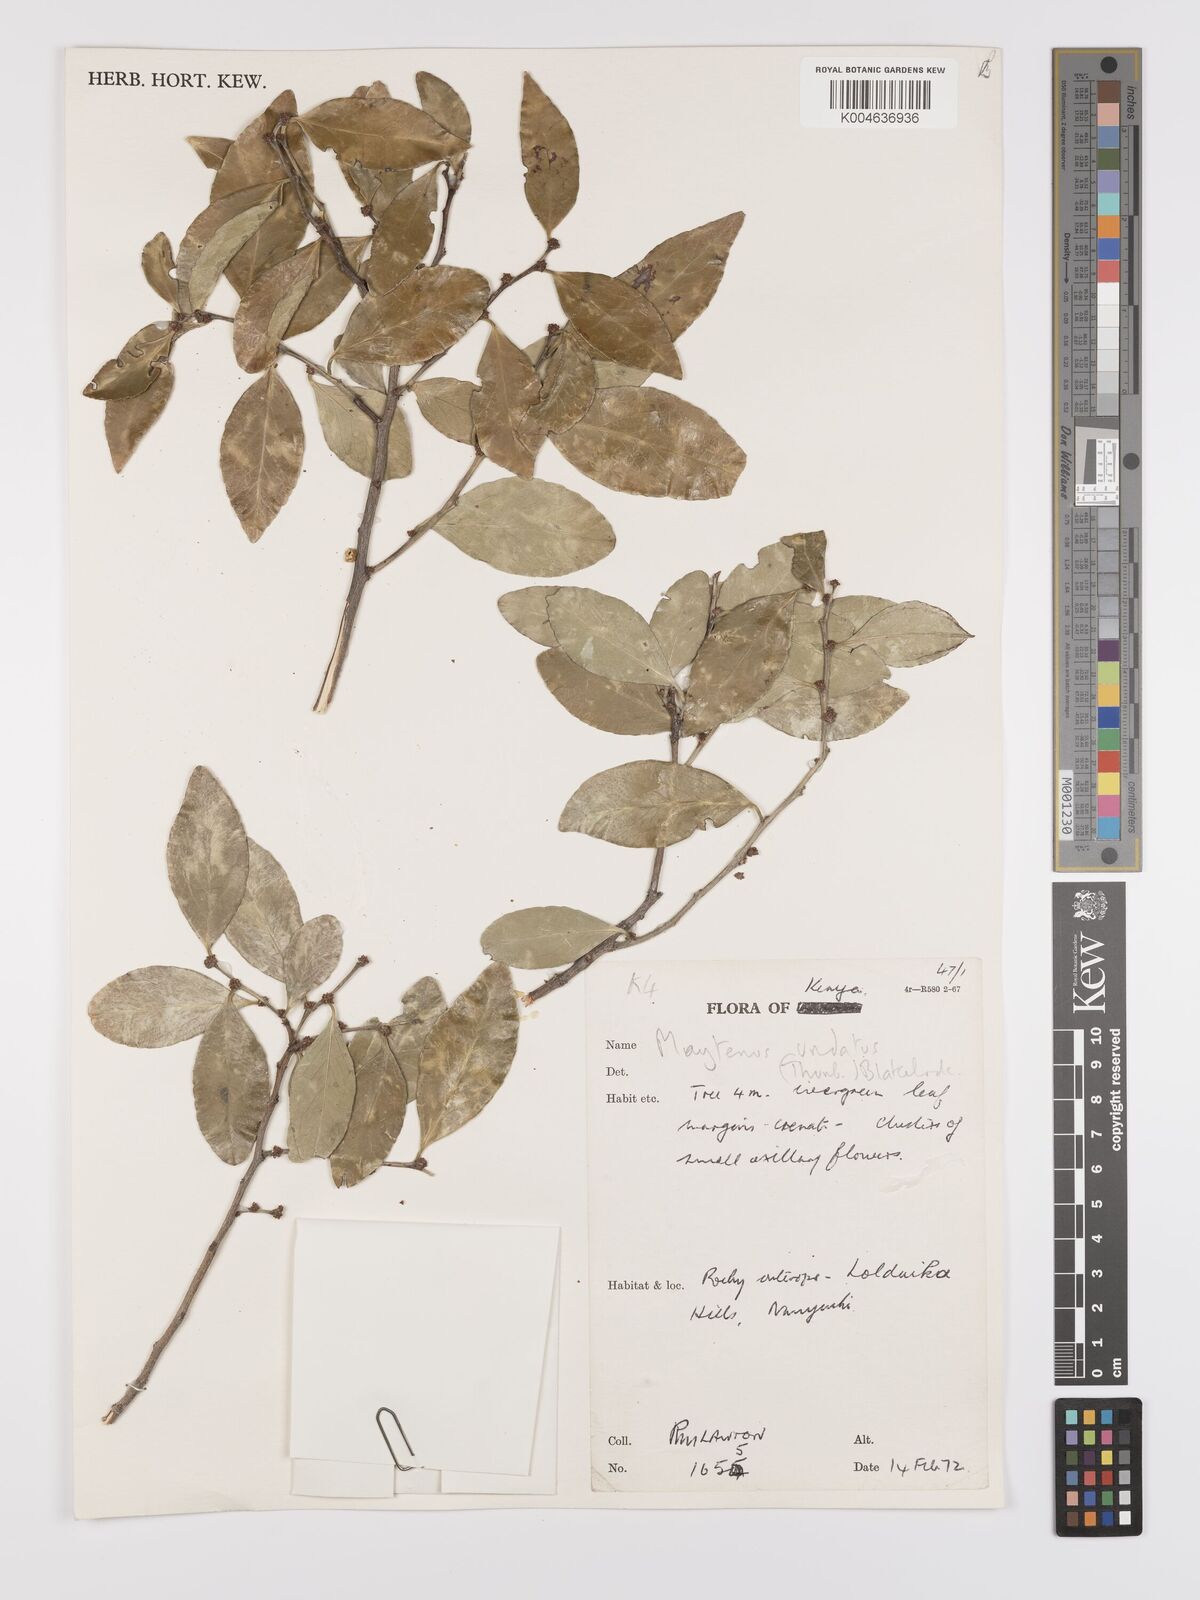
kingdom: Plantae
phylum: Tracheophyta
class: Magnoliopsida
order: Celastrales
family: Celastraceae
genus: Gymnosporia
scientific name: Gymnosporia undata
